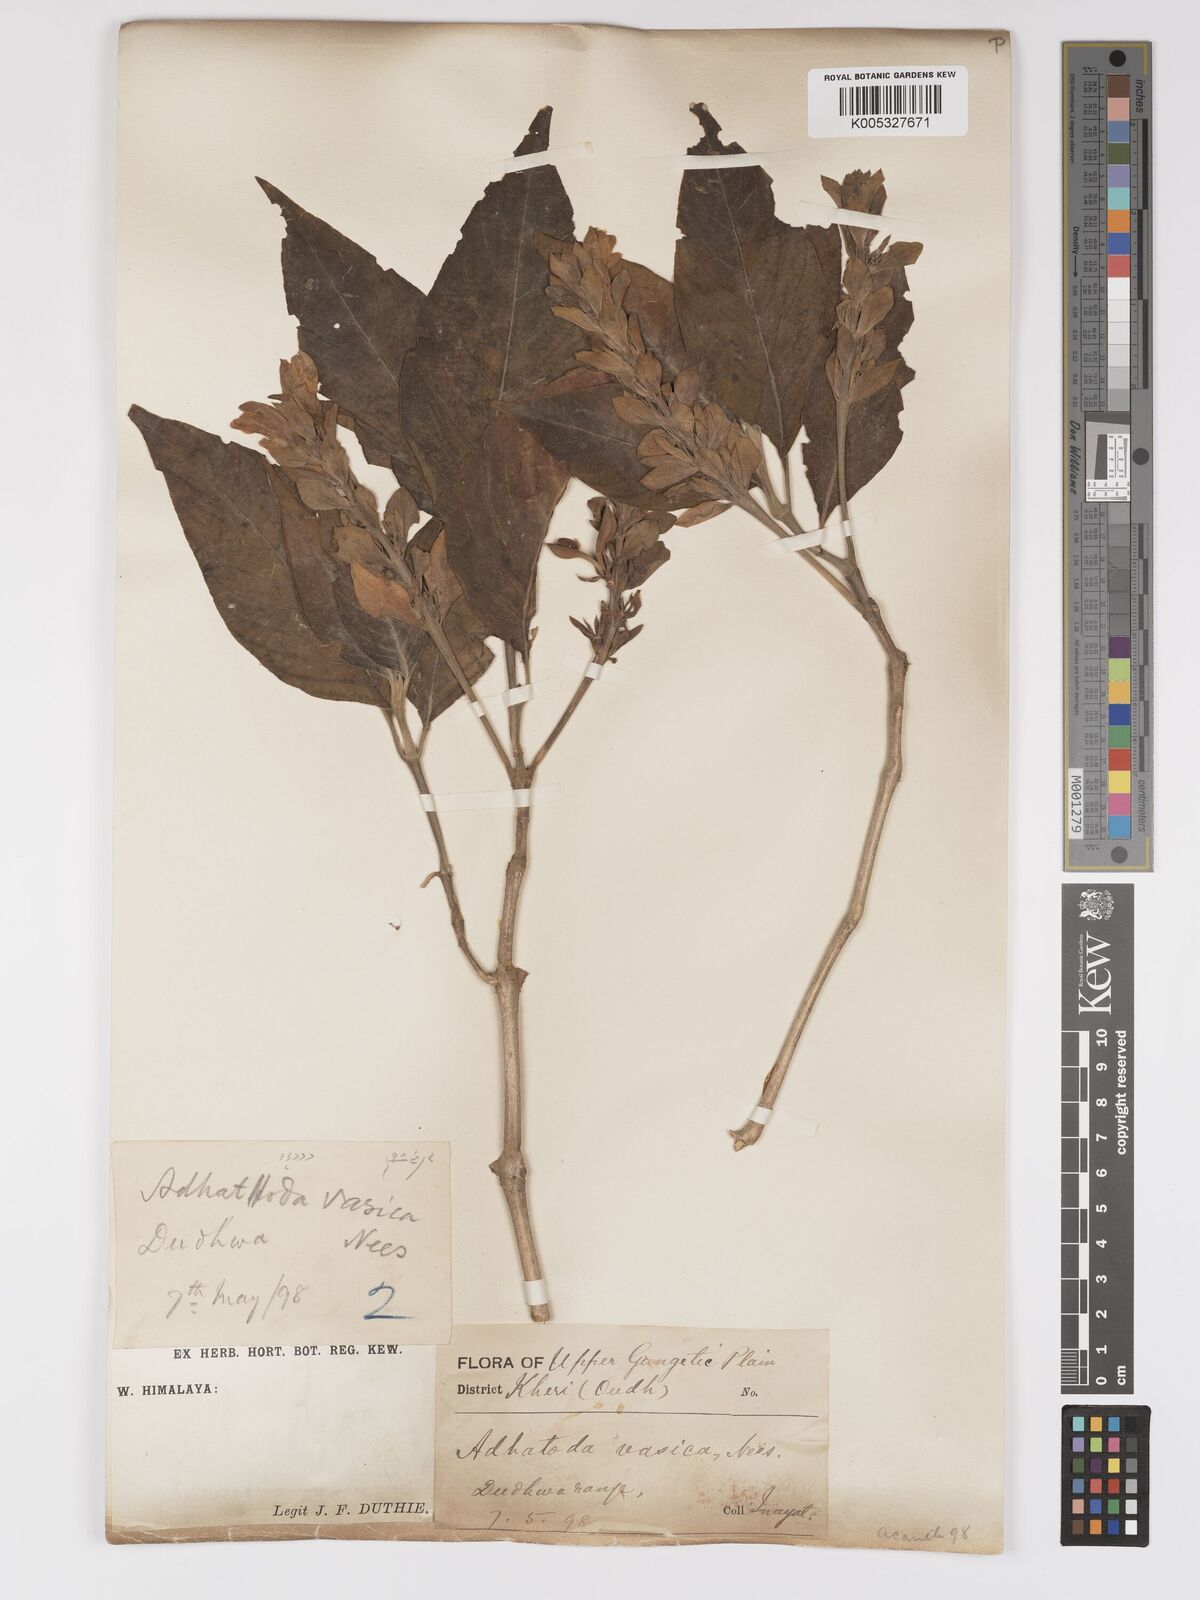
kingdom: Plantae
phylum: Tracheophyta
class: Magnoliopsida
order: Lamiales
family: Acanthaceae
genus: Ecbolium
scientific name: Ecbolium ligustrinum
